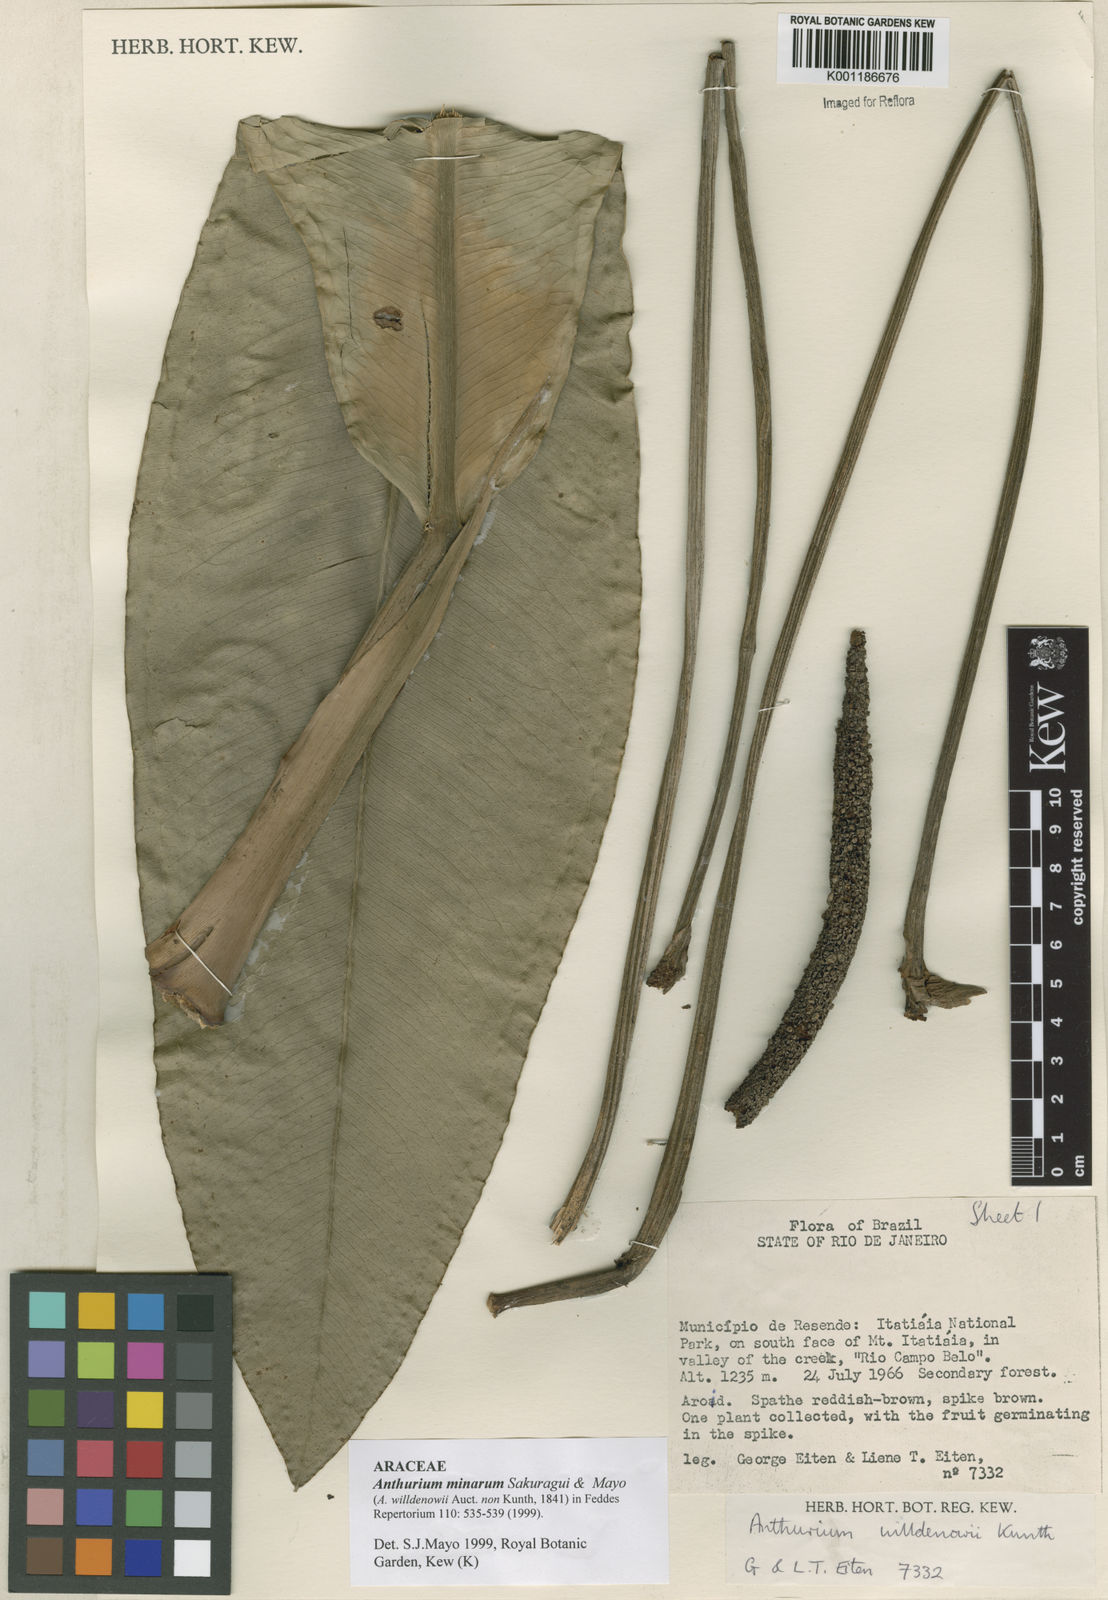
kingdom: Plantae
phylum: Tracheophyta
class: Liliopsida
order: Alismatales
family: Araceae
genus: Anthurium
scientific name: Anthurium minarum
